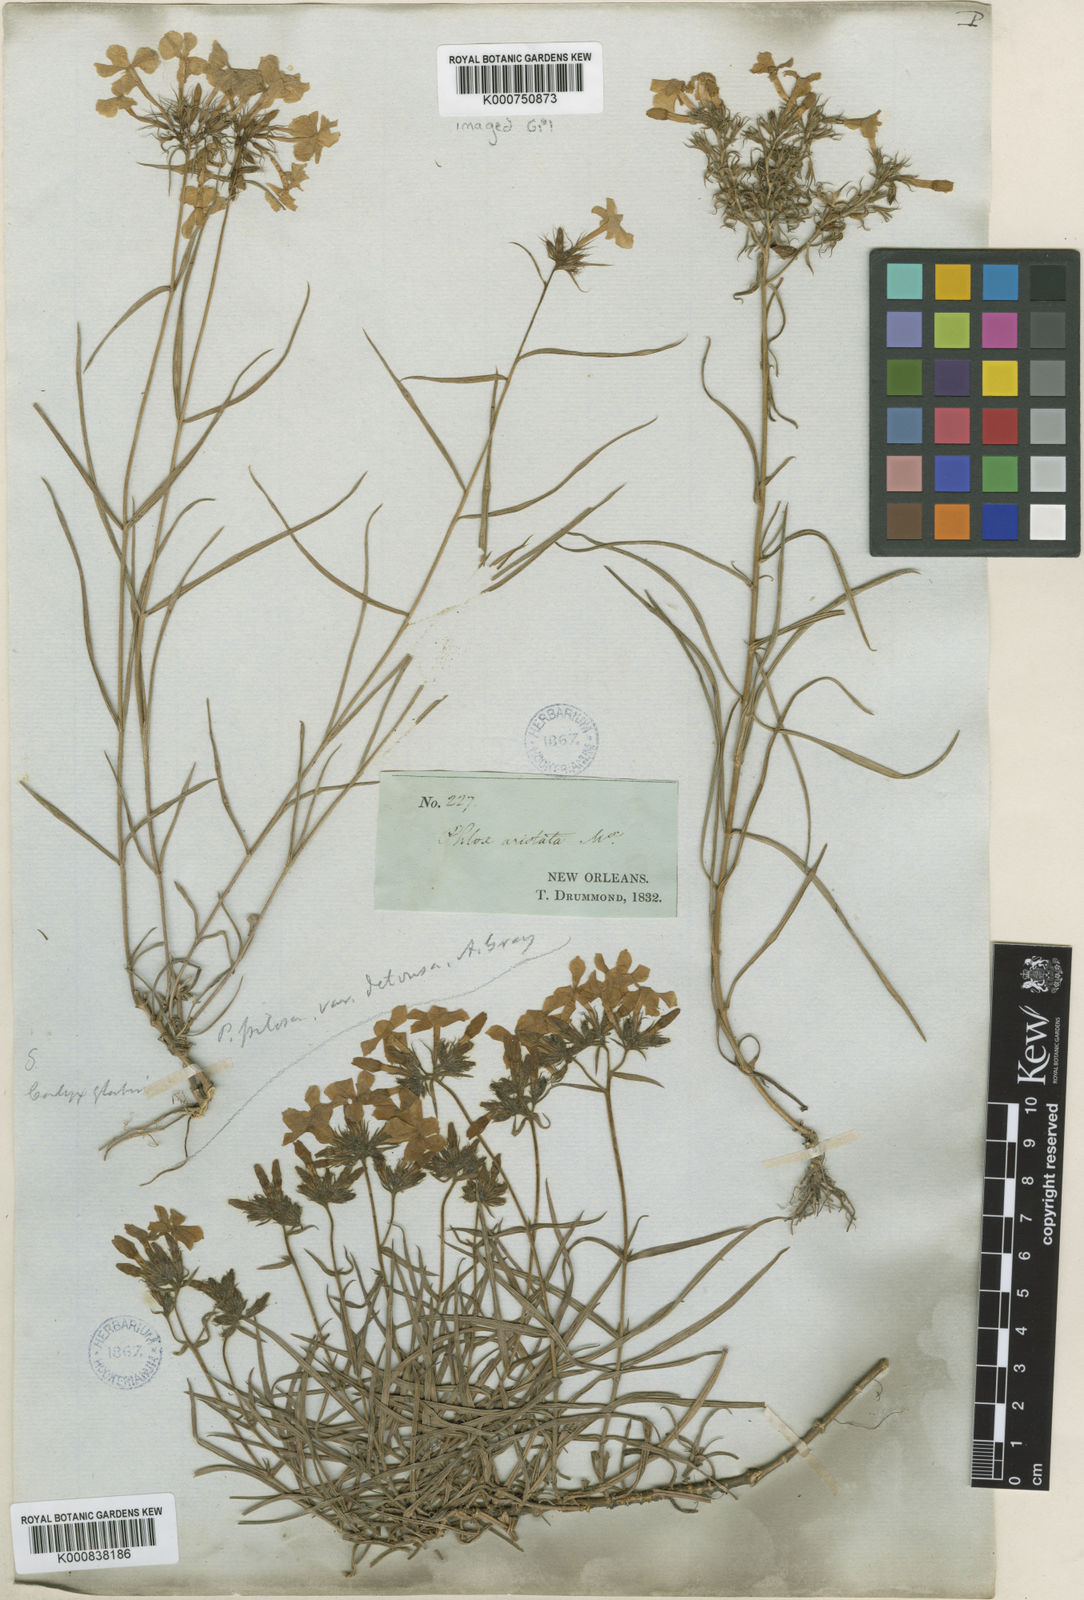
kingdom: Plantae
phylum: Tracheophyta
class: Magnoliopsida
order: Ericales
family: Polemoniaceae
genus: Phlox
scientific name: Phlox pilosa
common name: Prairie phlox
